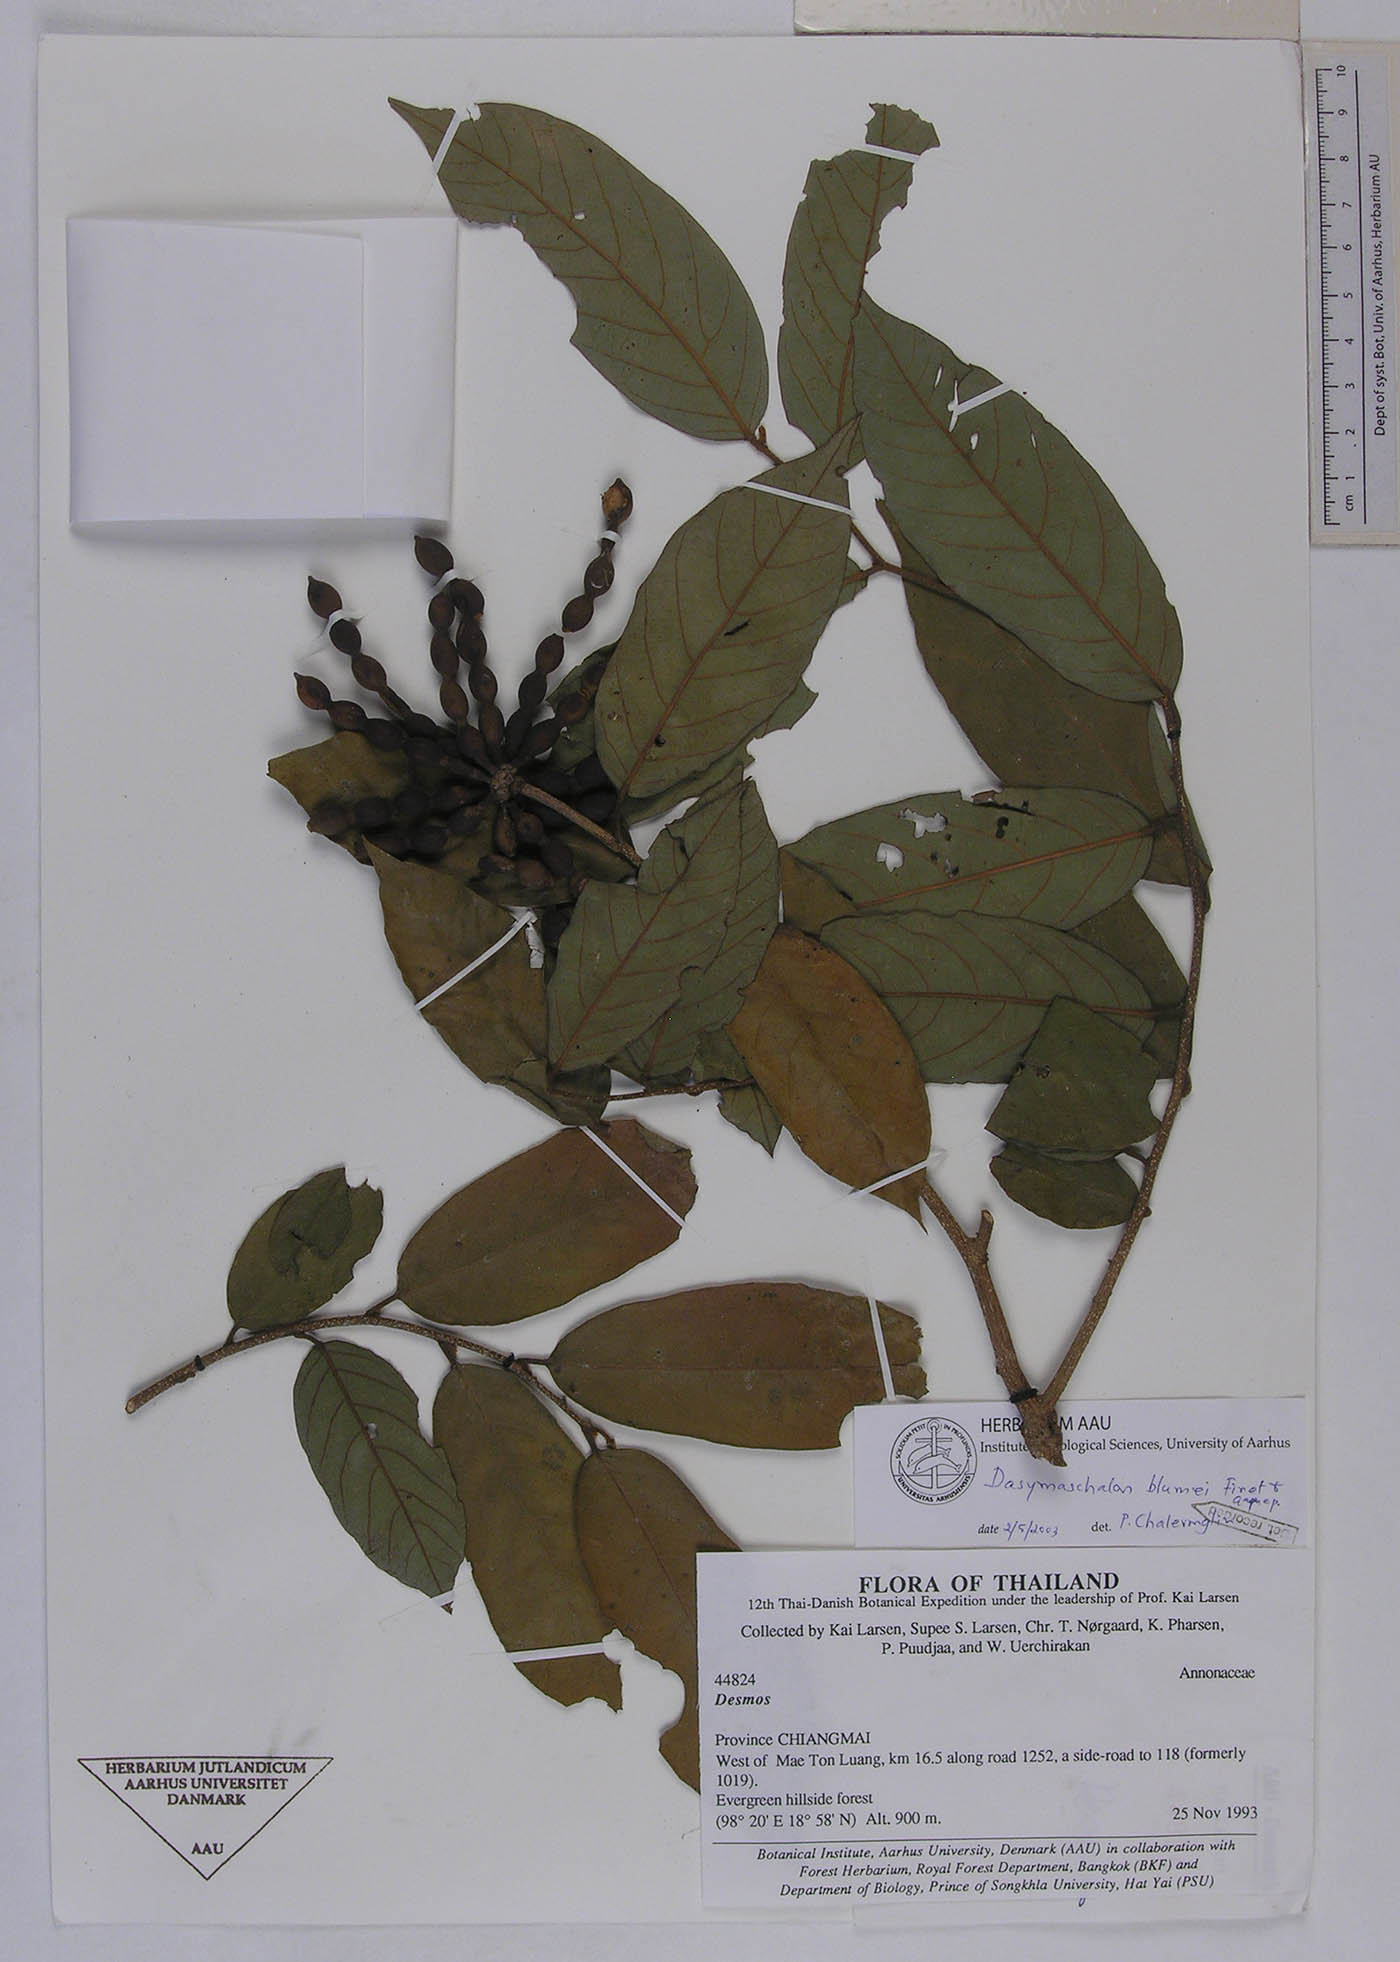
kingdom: Plantae
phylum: Tracheophyta
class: Magnoliopsida
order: Magnoliales
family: Annonaceae
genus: Dasymaschalon
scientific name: Dasymaschalon dasymaschalum
